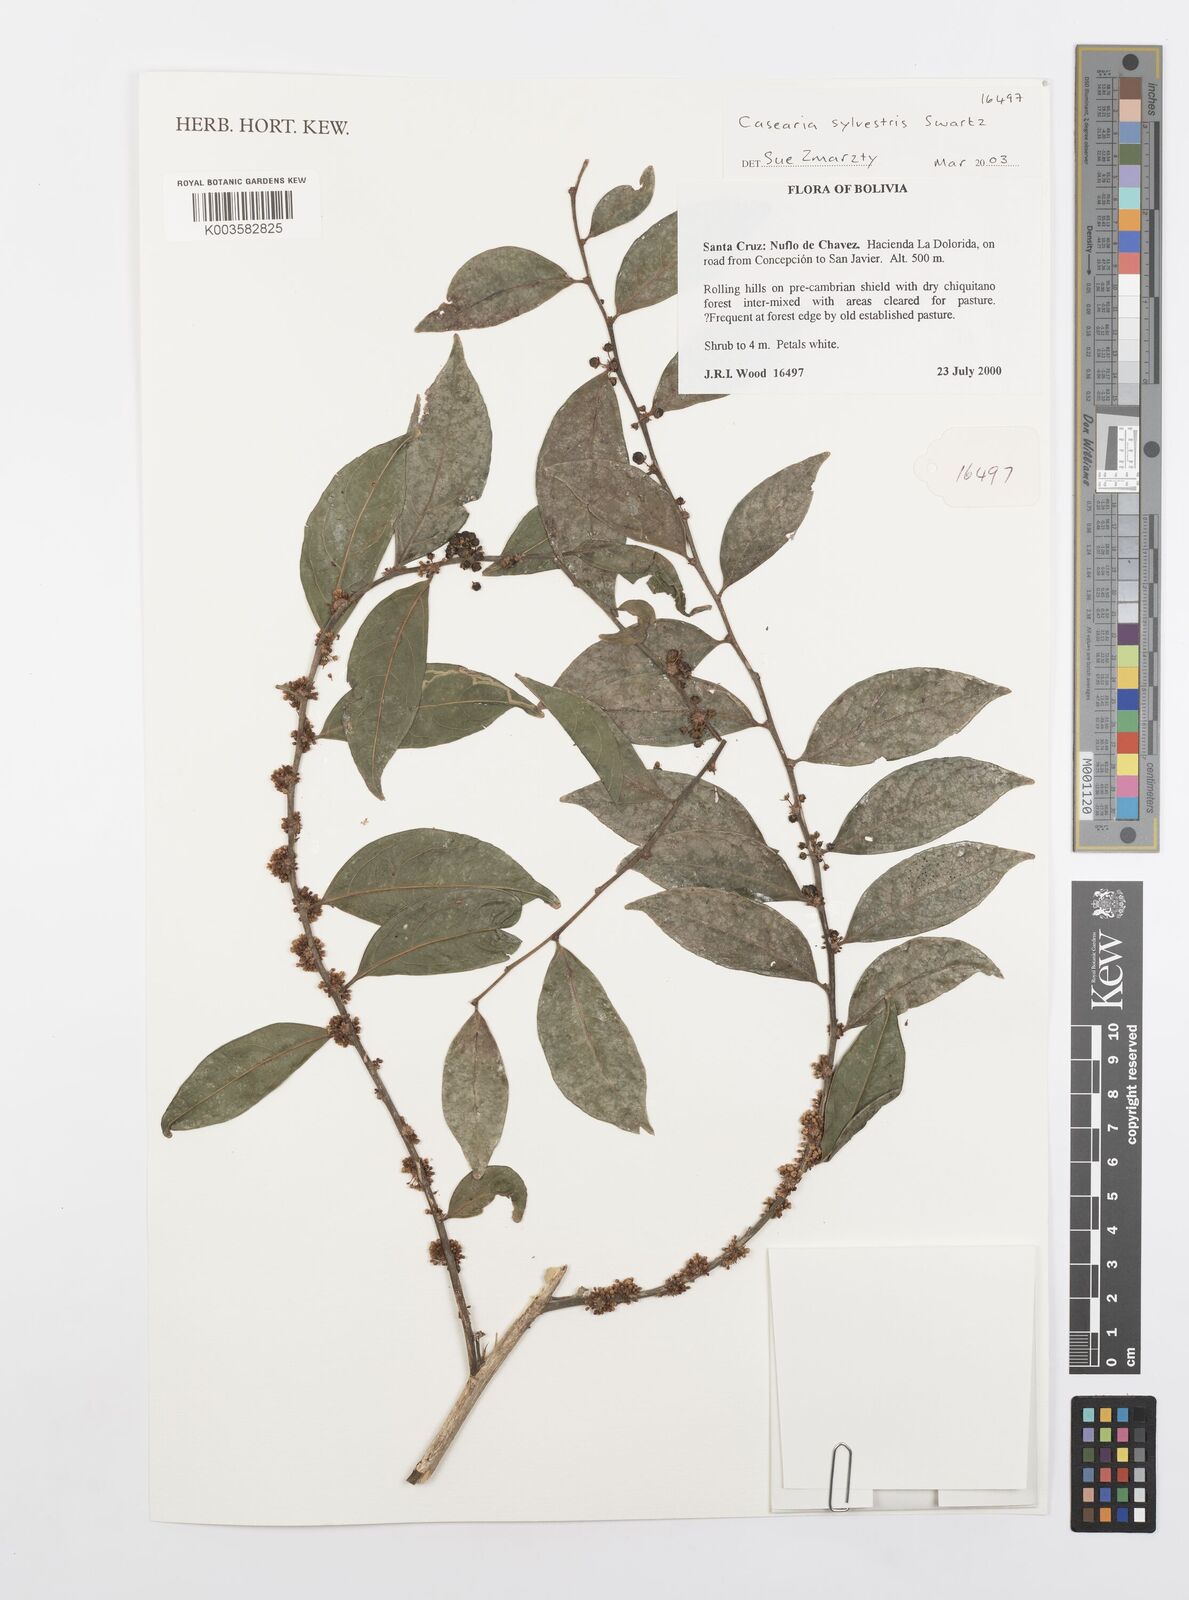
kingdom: Plantae
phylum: Tracheophyta
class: Magnoliopsida
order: Malpighiales
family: Salicaceae
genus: Casearia
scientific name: Casearia sylvestris
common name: Wild sage
